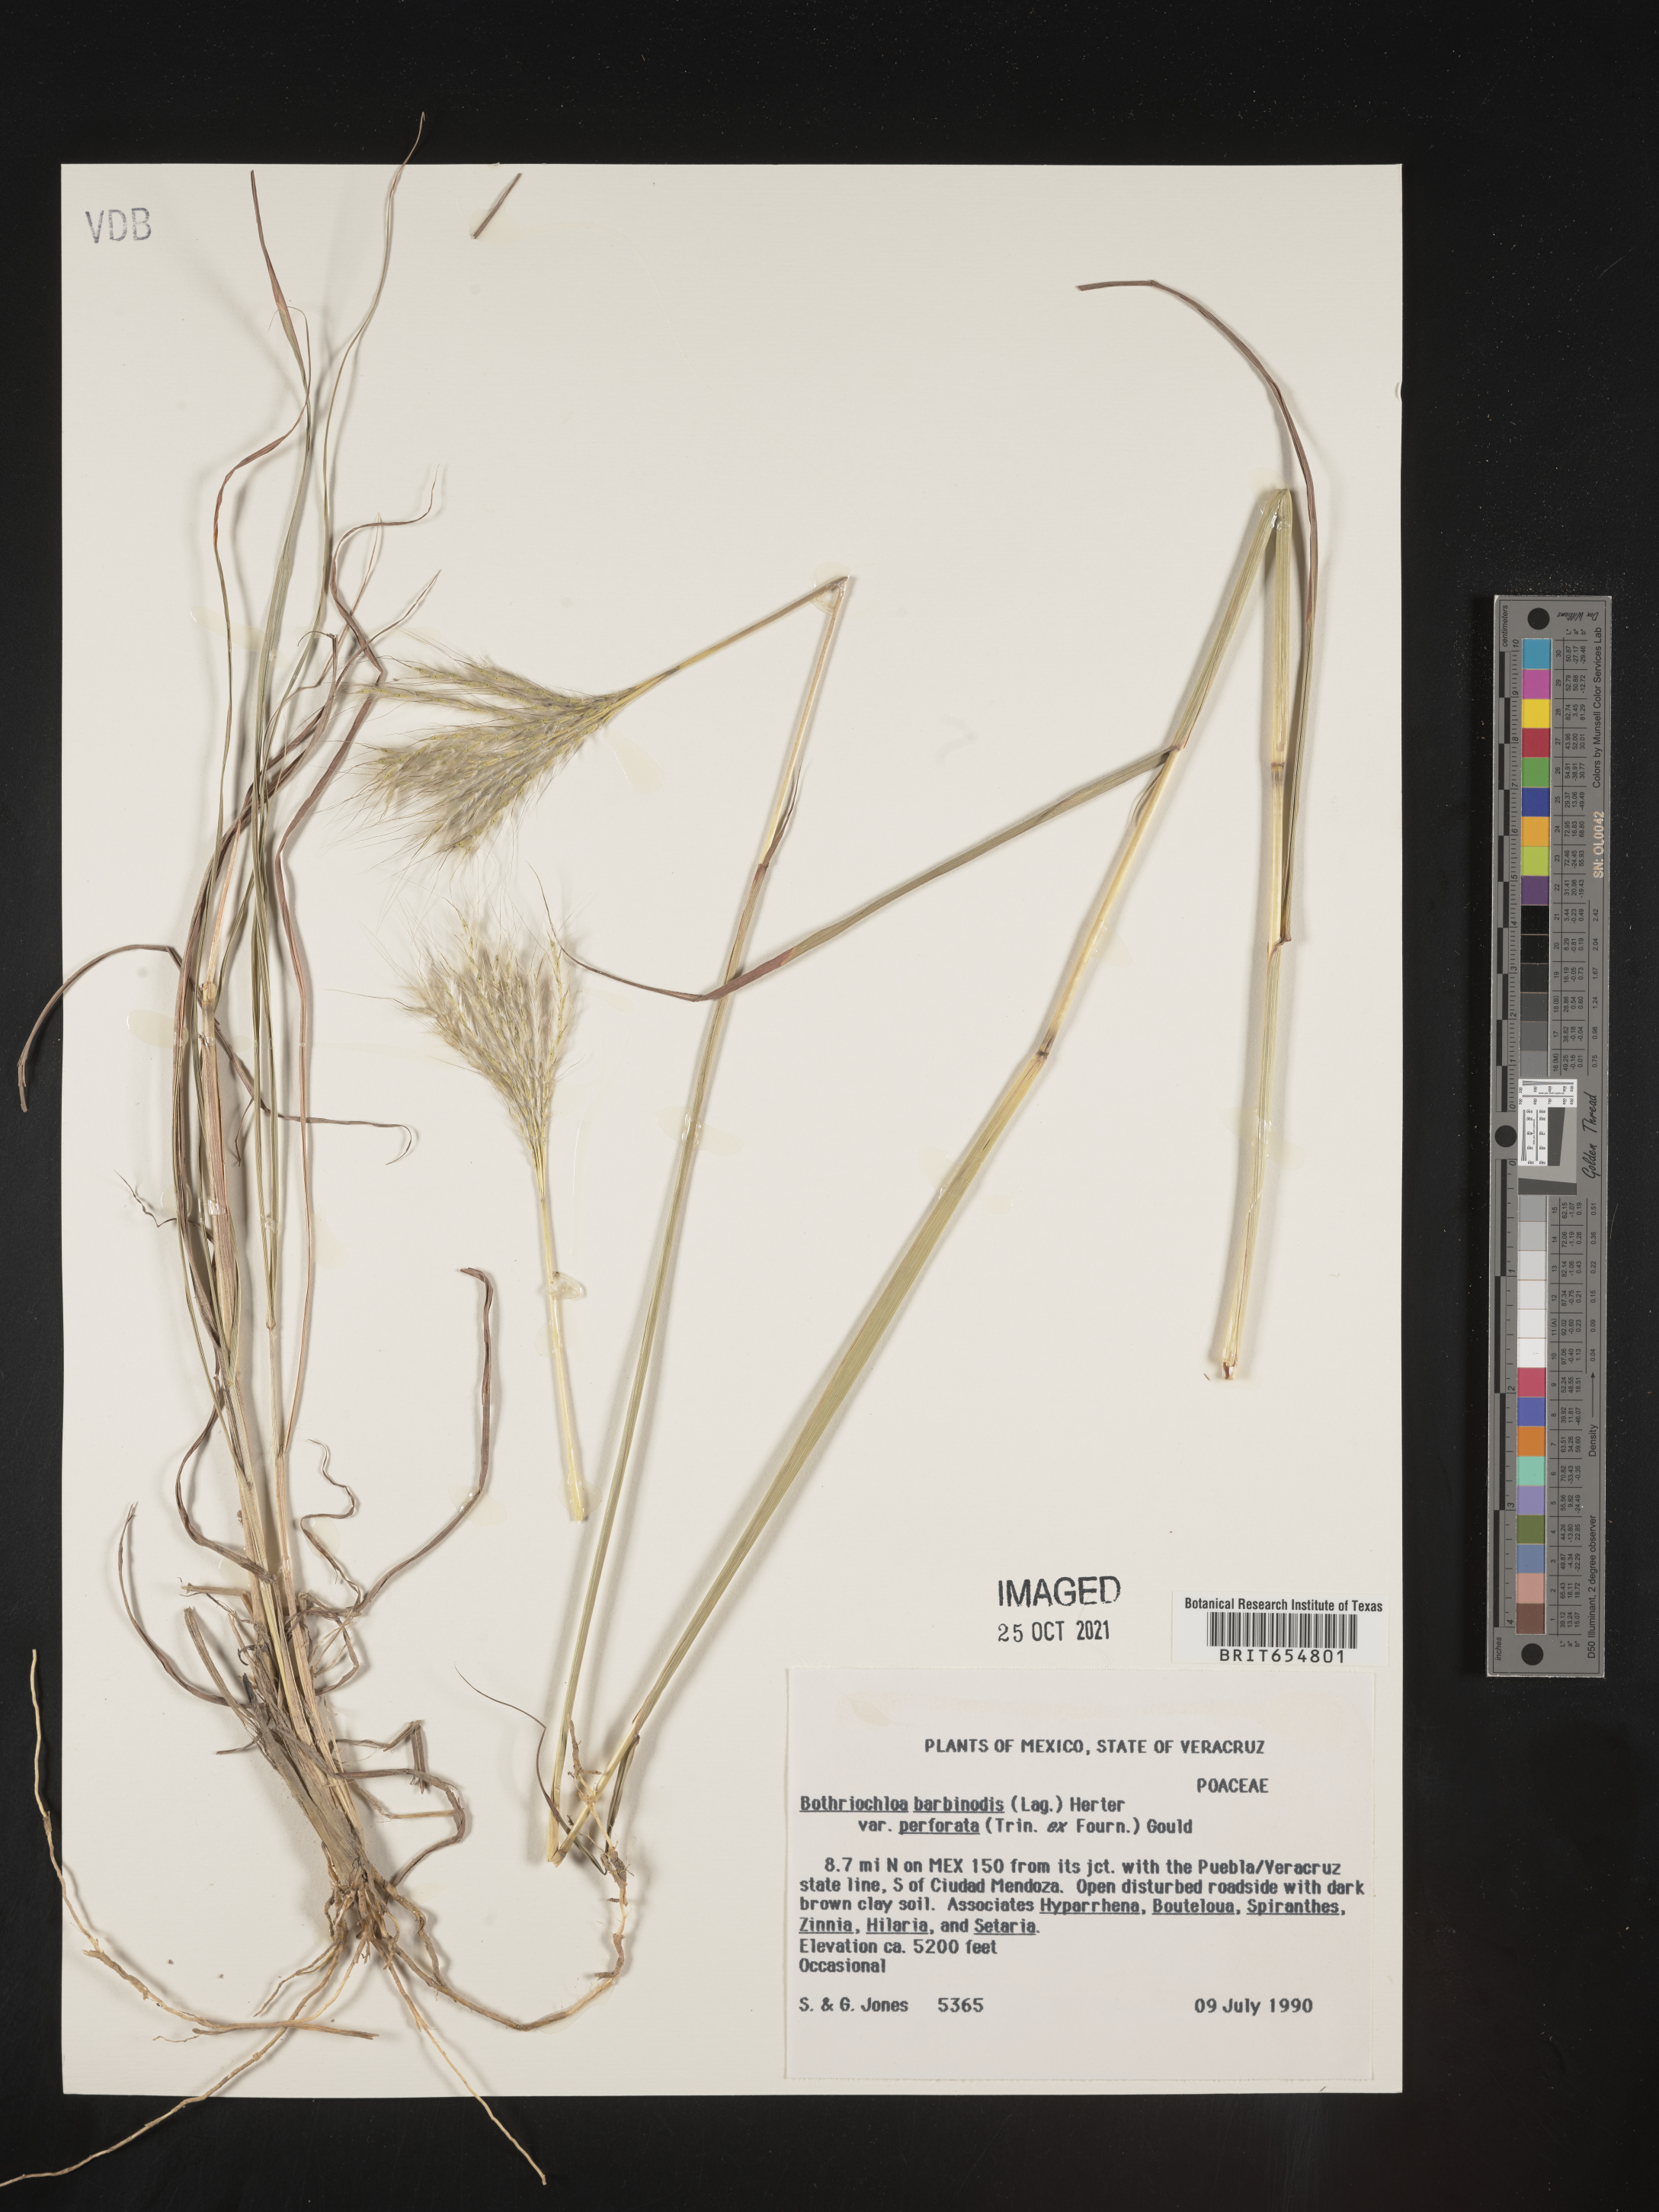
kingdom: Plantae
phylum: Tracheophyta
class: Liliopsida
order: Poales
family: Poaceae
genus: Andropogon
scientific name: Andropogon
